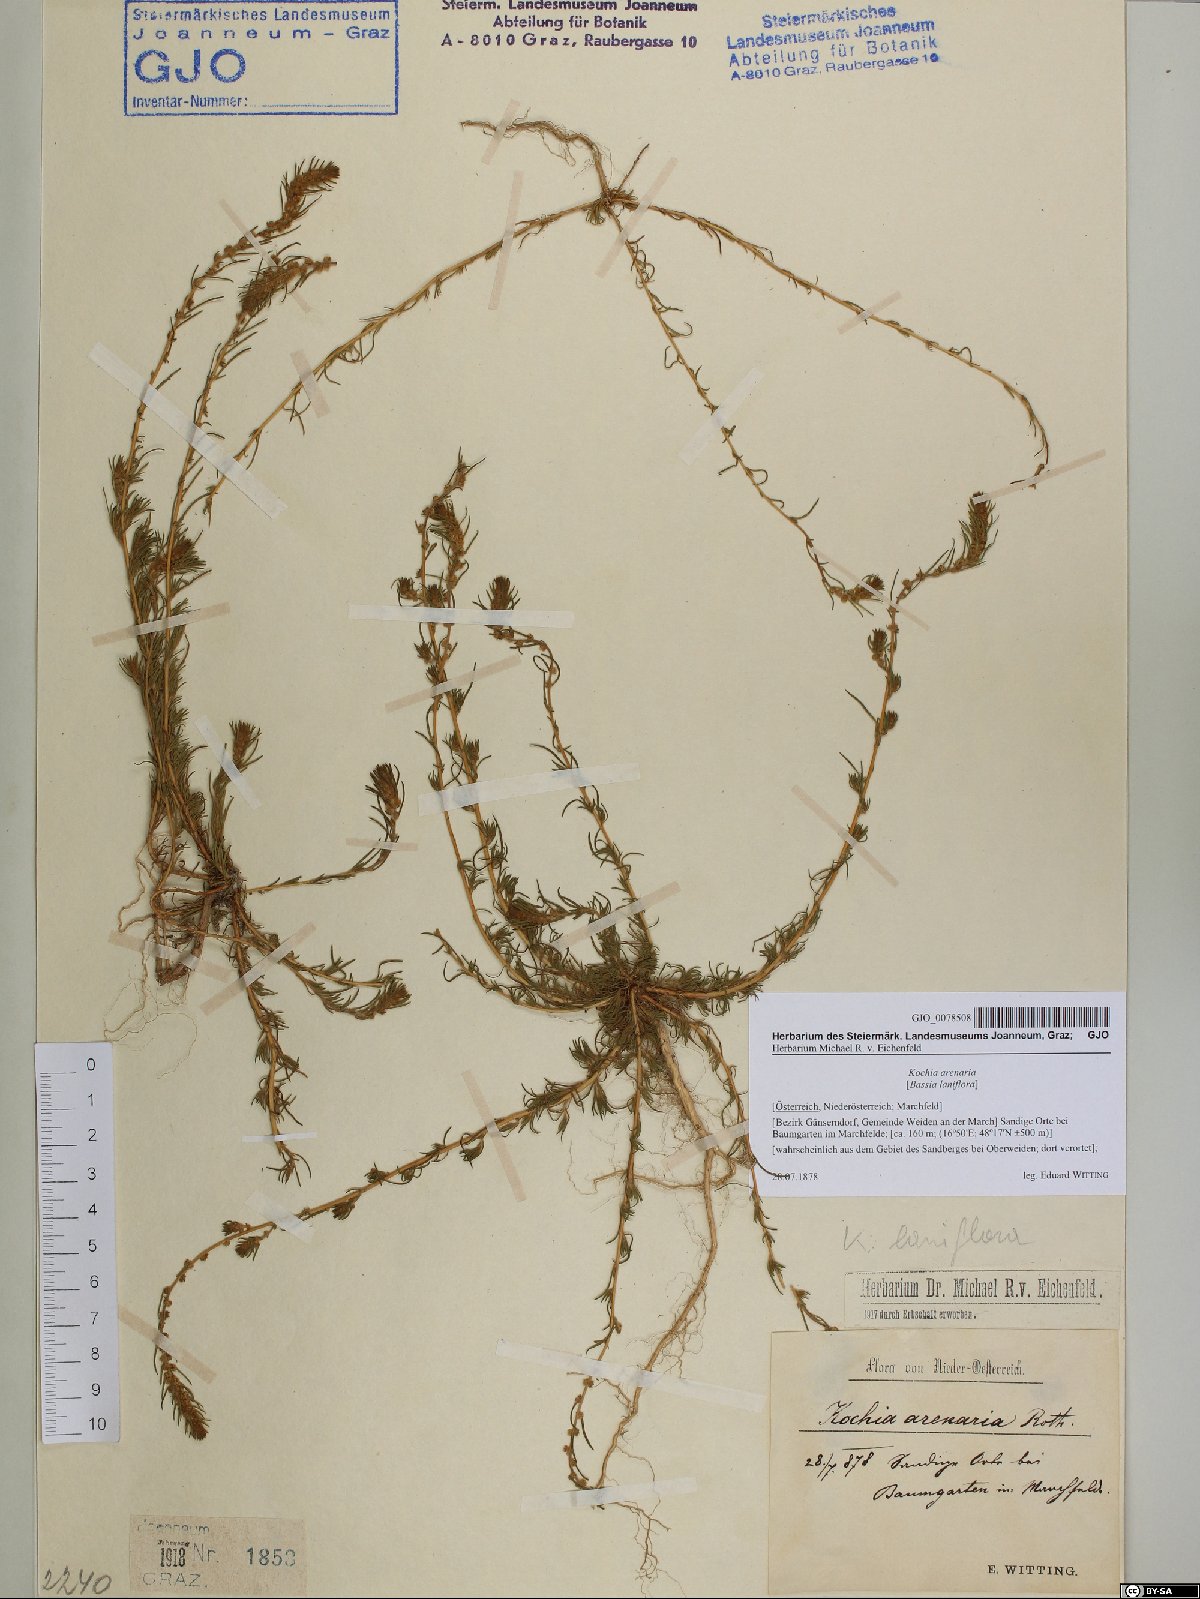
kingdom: Plantae
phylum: Tracheophyta
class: Magnoliopsida
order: Caryophyllales
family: Amaranthaceae
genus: Bassia
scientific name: Bassia laniflora
